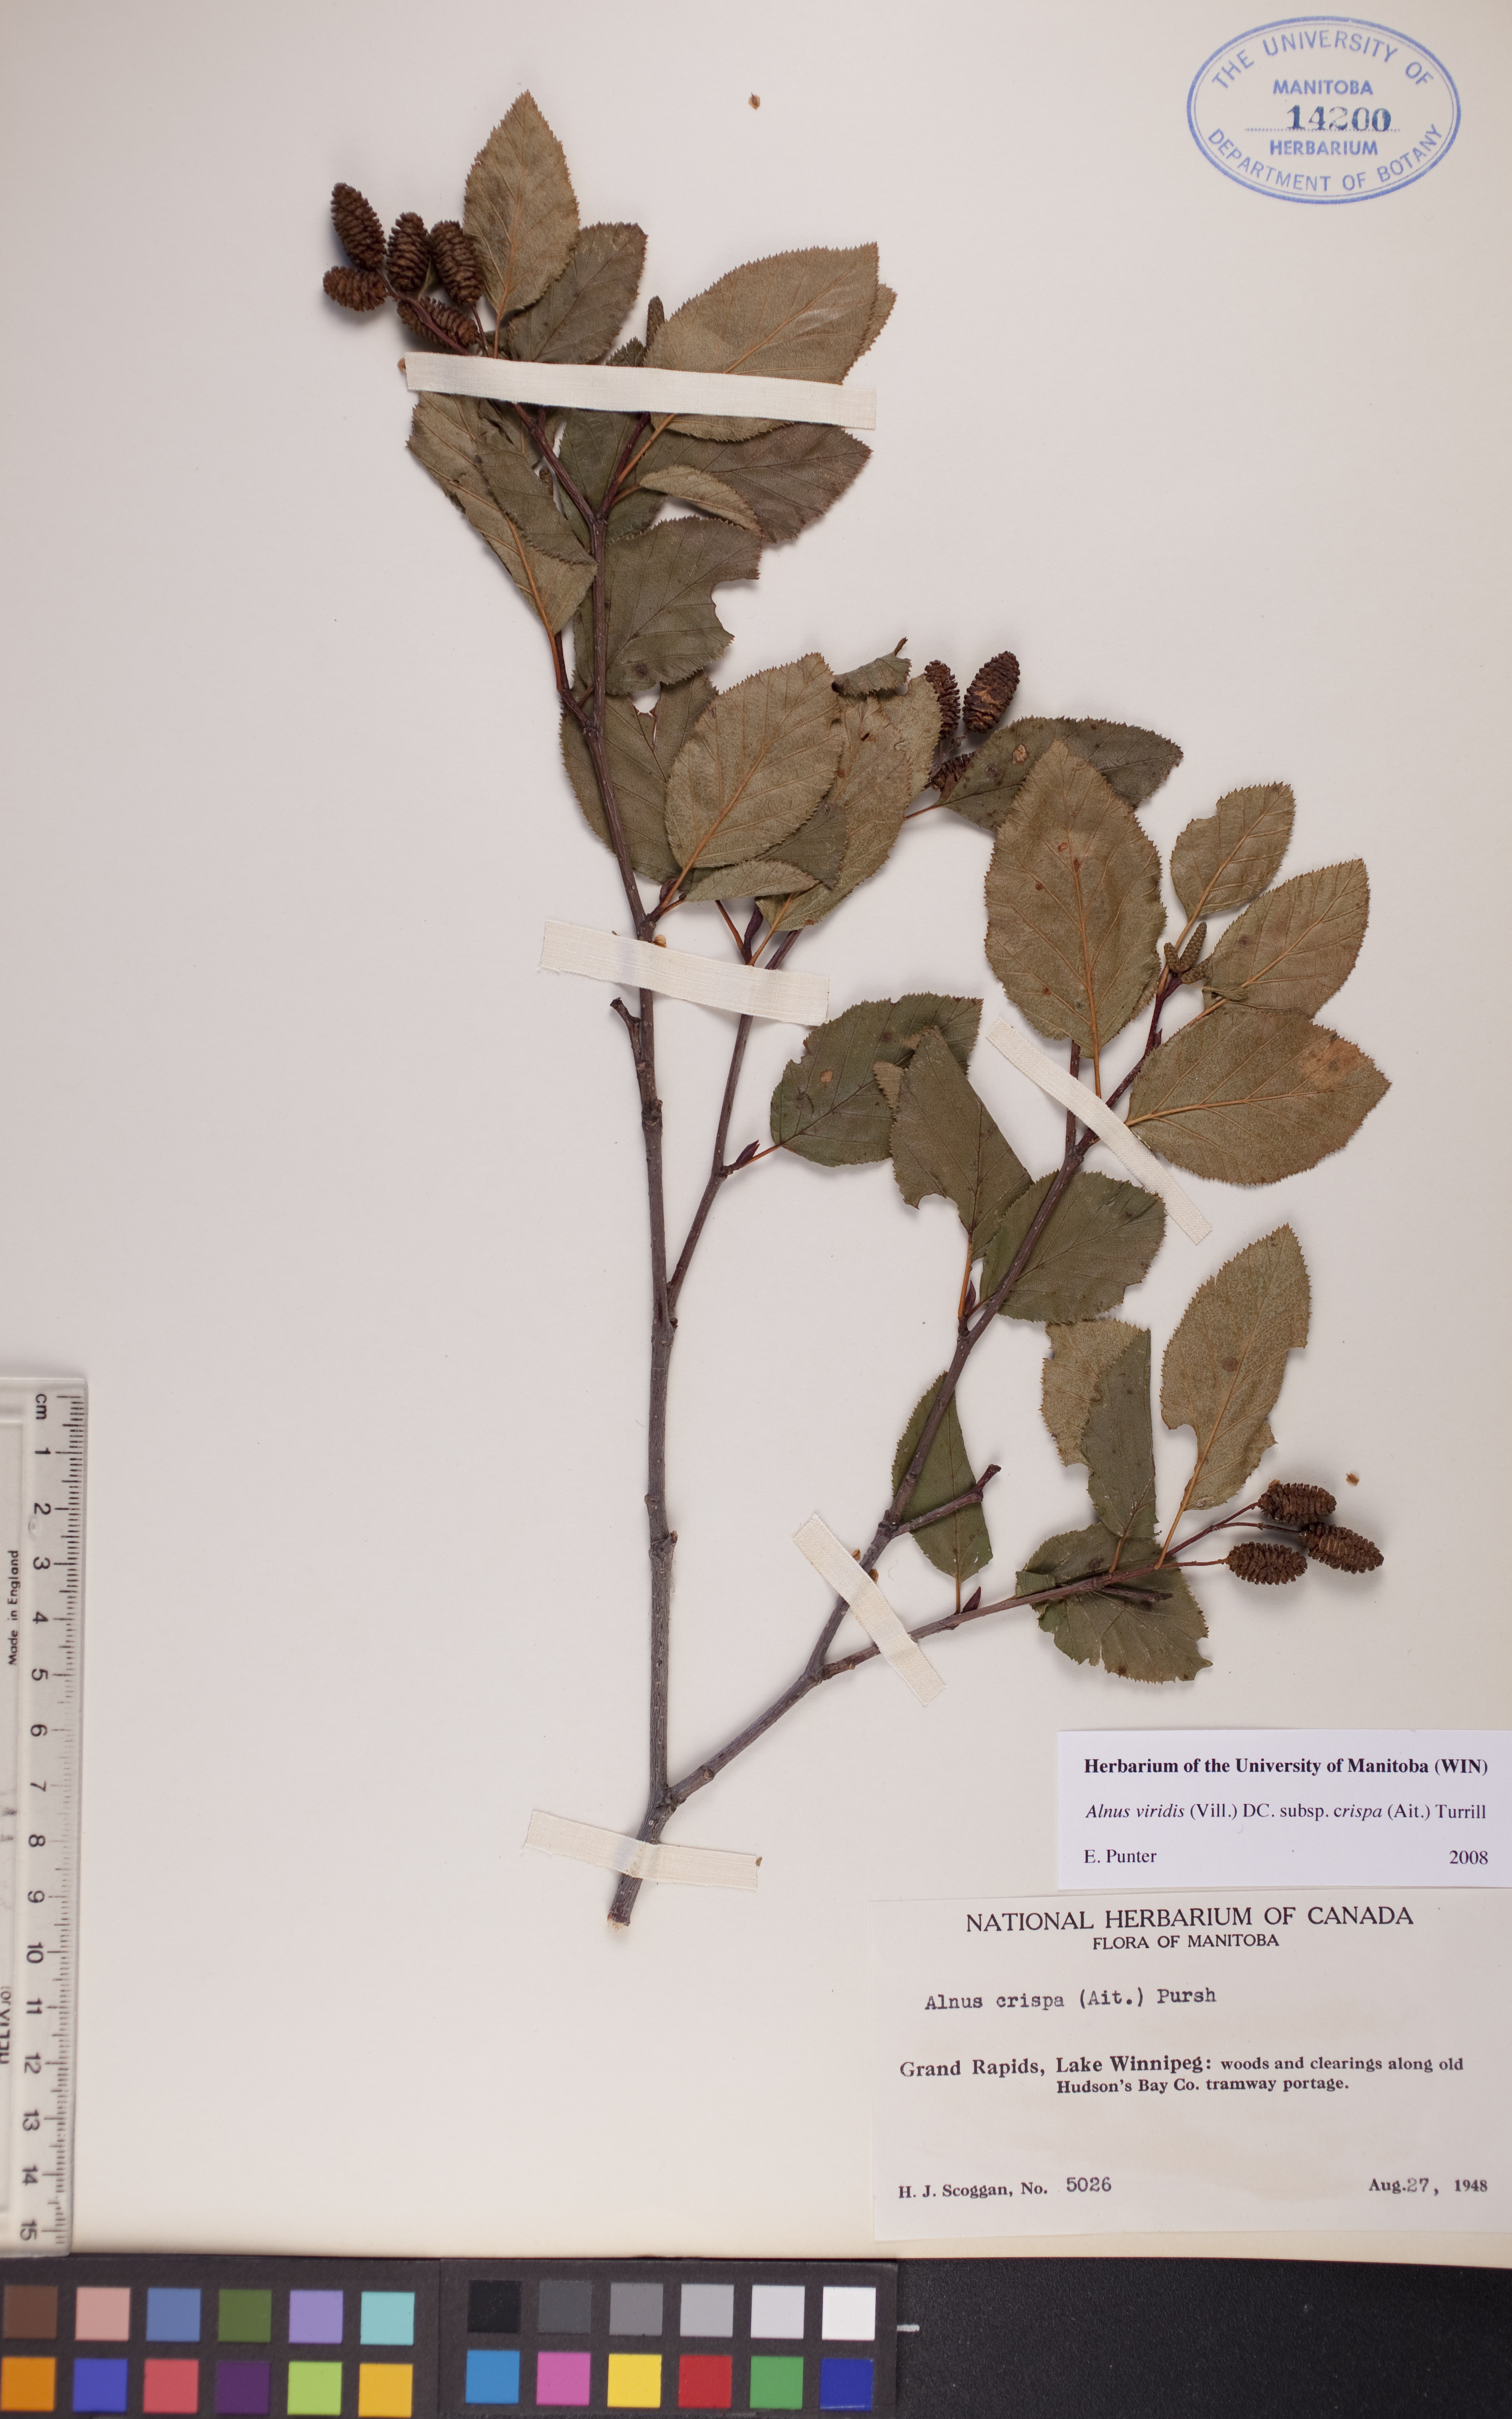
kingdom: Plantae
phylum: Tracheophyta
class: Magnoliopsida
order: Fagales
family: Betulaceae
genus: Alnus
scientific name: Alnus alnobetula
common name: Green alder
